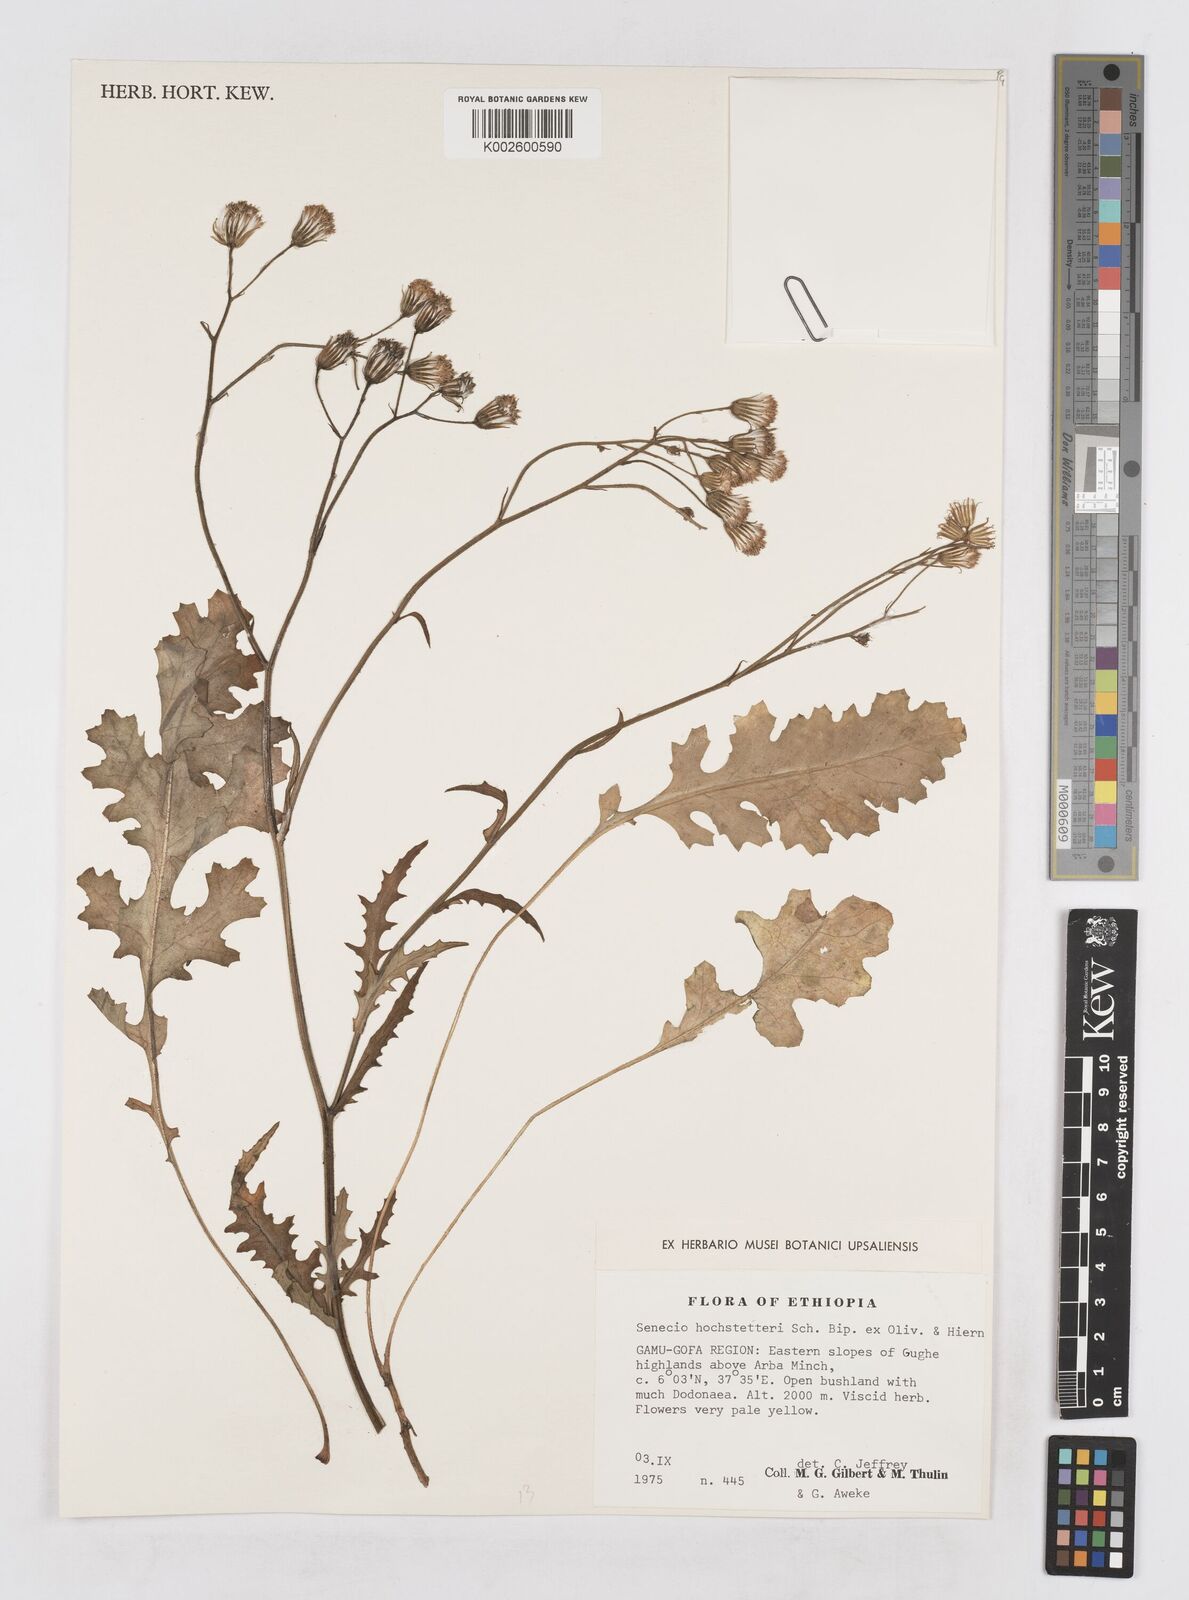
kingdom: Plantae
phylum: Tracheophyta
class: Magnoliopsida
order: Asterales
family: Asteraceae
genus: Senecio
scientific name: Senecio hochstetteri
